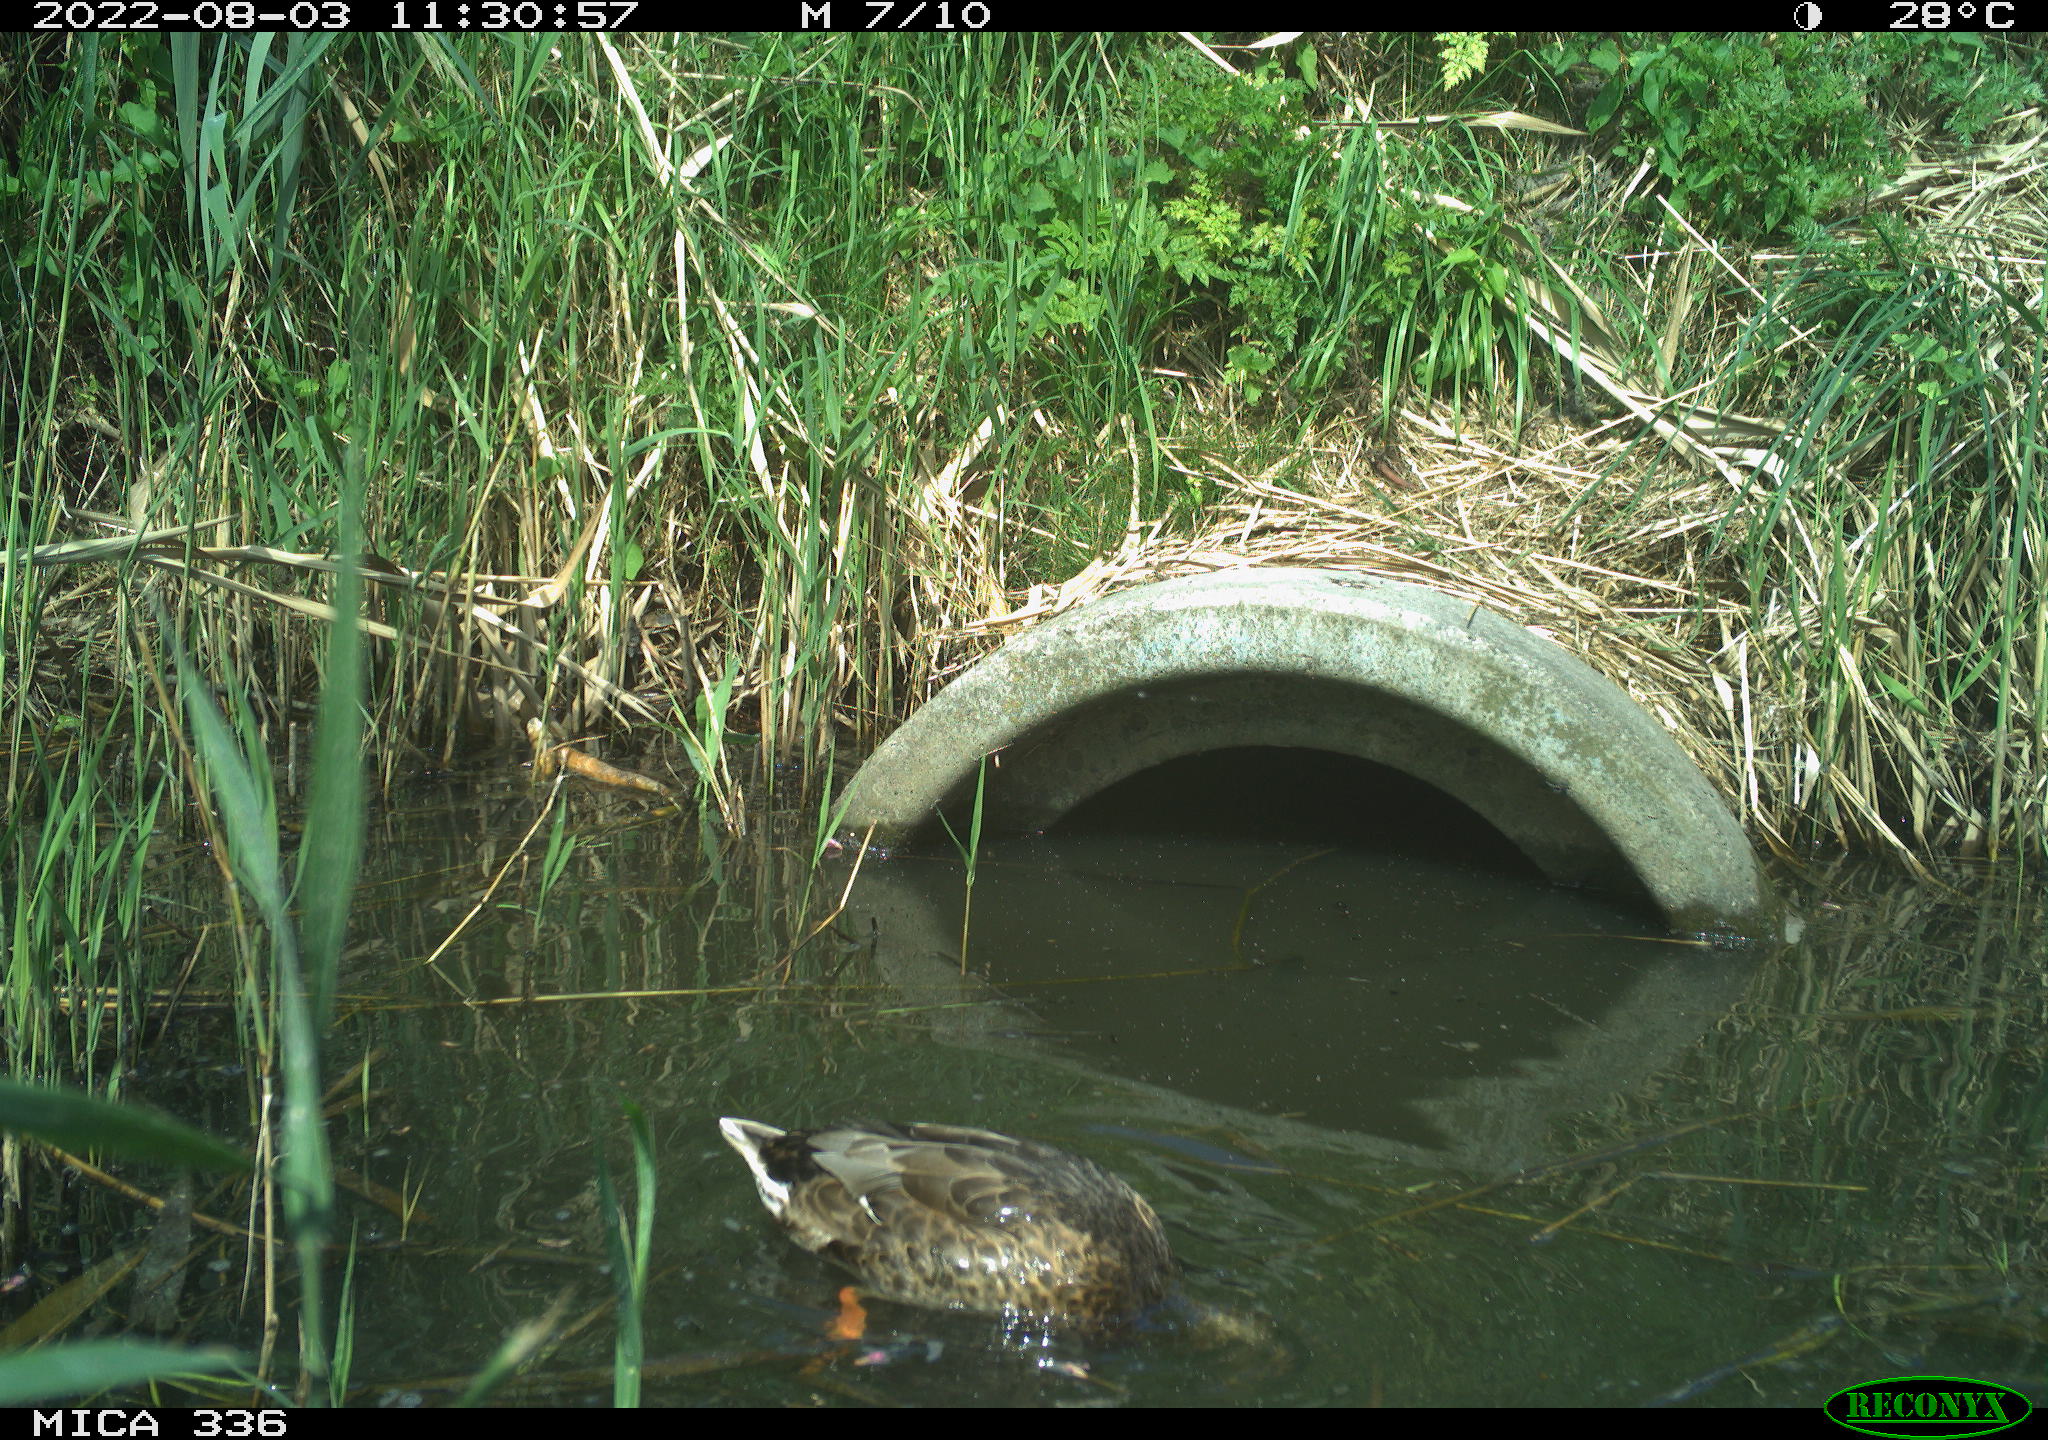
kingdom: Animalia
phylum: Chordata
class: Aves
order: Anseriformes
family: Anatidae
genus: Anas
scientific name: Anas platyrhynchos
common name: Mallard
